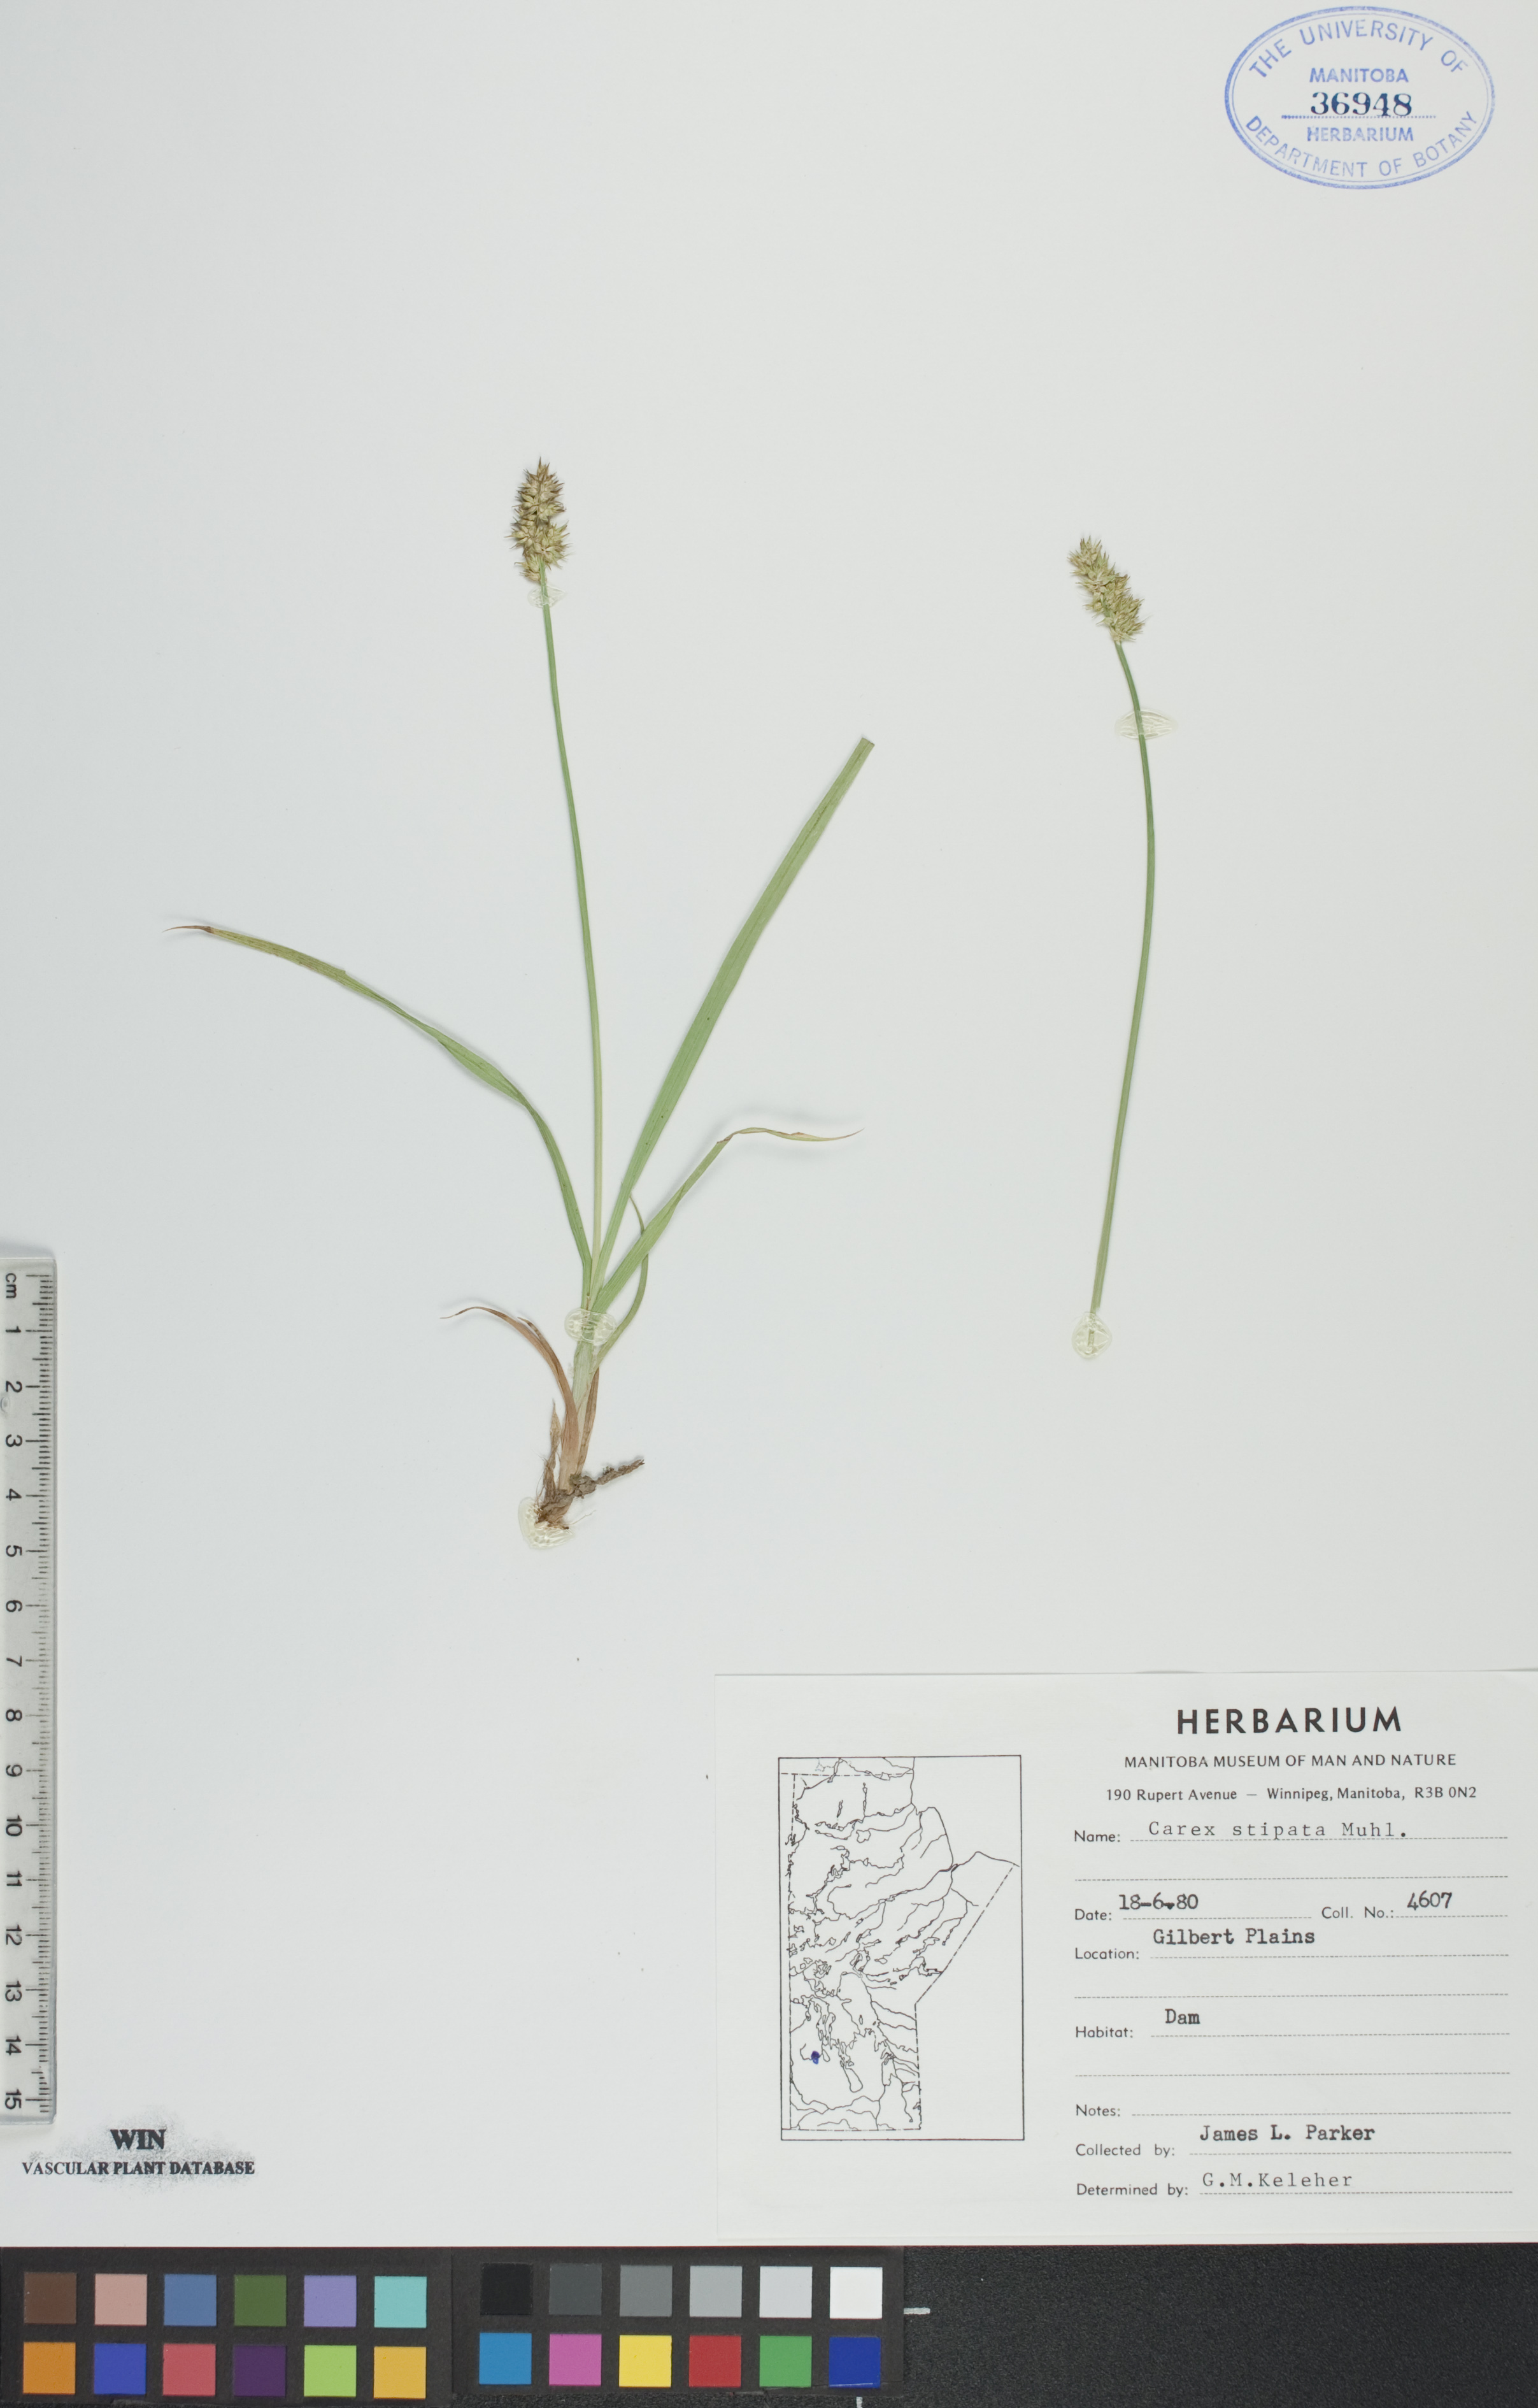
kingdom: Plantae
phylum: Tracheophyta
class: Liliopsida
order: Poales
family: Cyperaceae
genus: Carex
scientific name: Carex stipata
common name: Awl-fruited sedge
